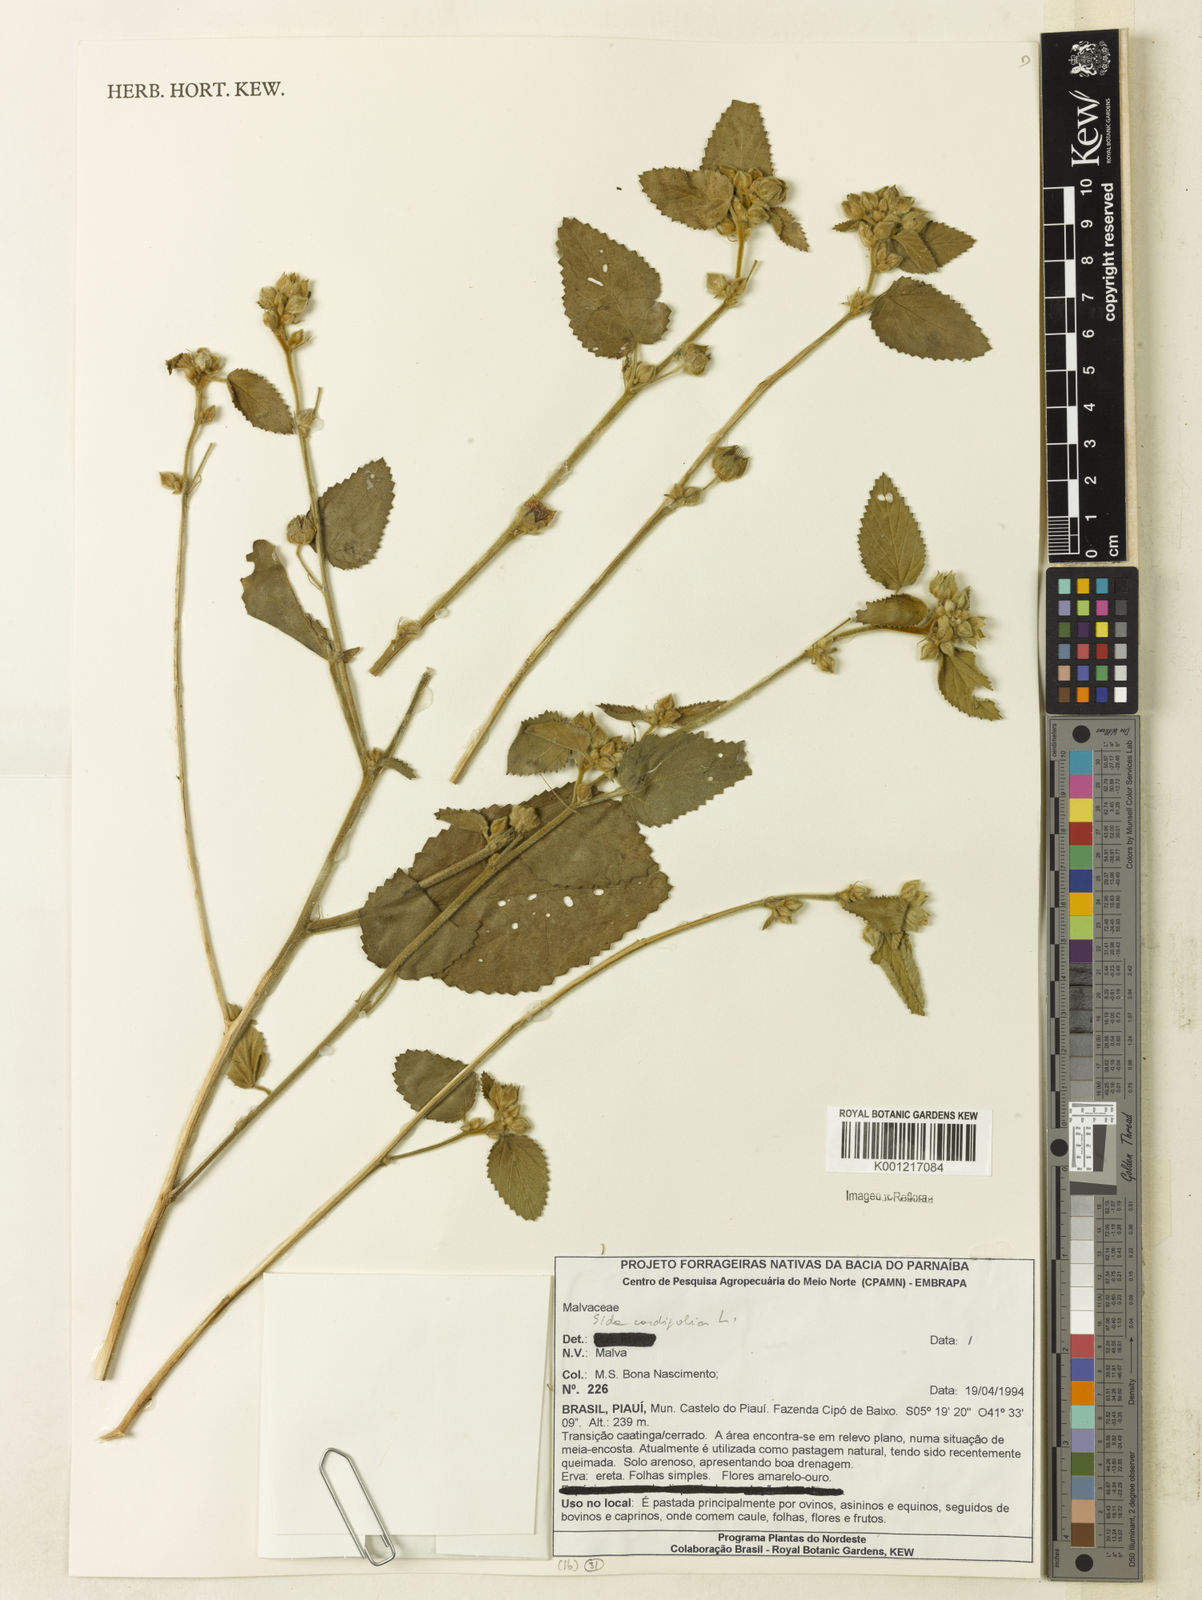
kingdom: Plantae
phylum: Tracheophyta
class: Magnoliopsida
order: Malvales
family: Malvaceae
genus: Sida
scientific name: Sida cordifolia
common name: Ilima
